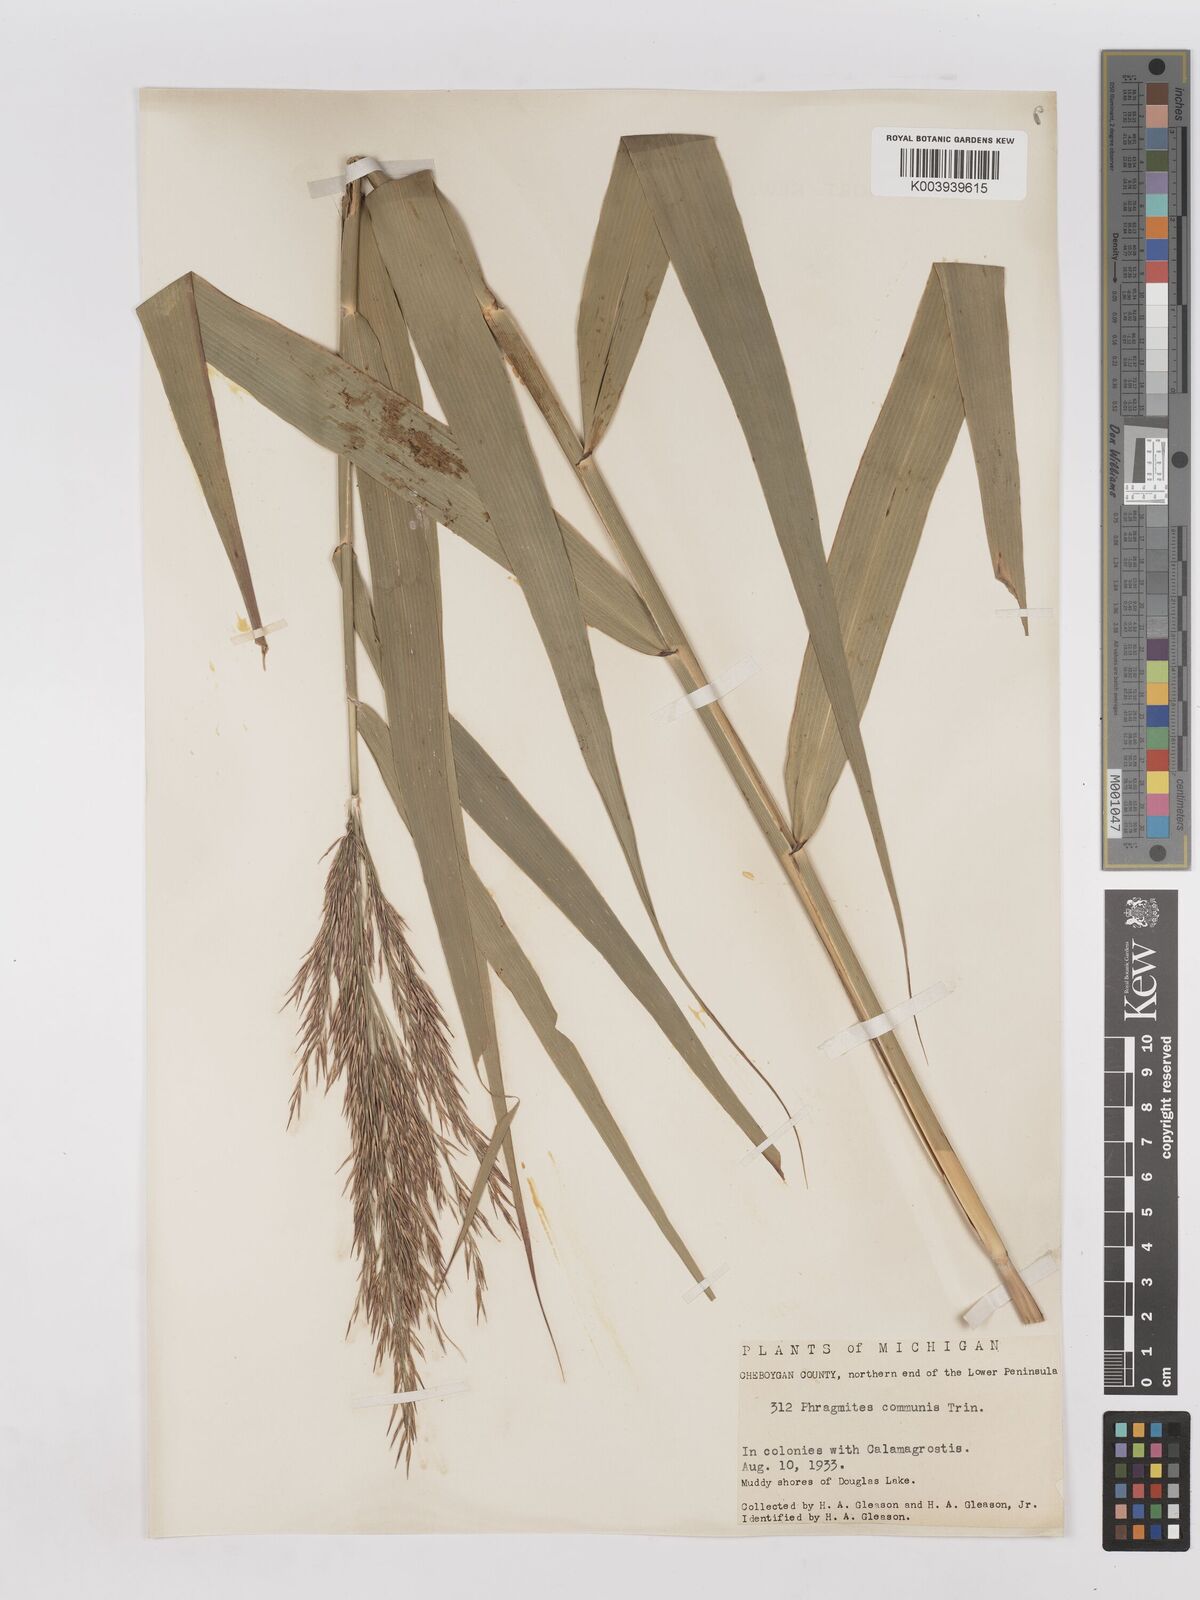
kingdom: Plantae
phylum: Tracheophyta
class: Liliopsida
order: Poales
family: Poaceae
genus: Phragmites
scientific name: Phragmites australis
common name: Common reed
